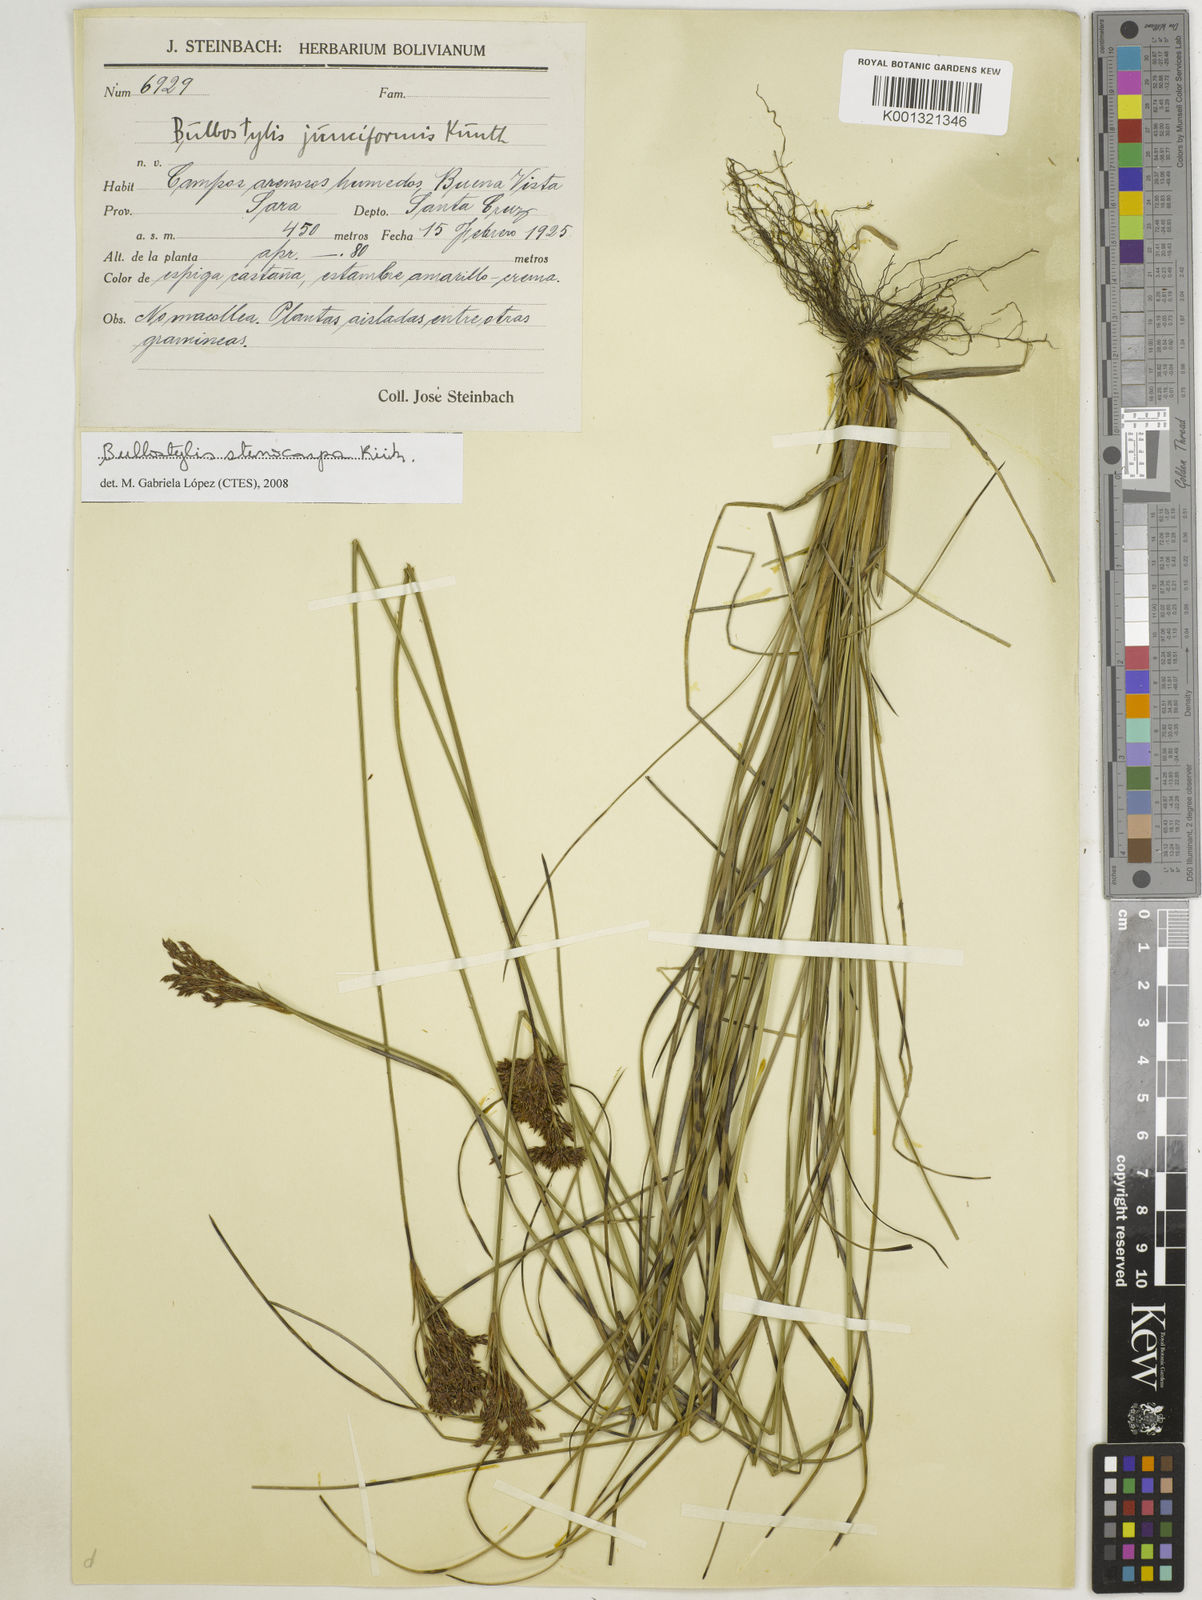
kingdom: Plantae
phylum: Tracheophyta
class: Liliopsida
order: Poales
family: Cyperaceae
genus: Bulbostylis
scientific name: Bulbostylis stenocarpa
